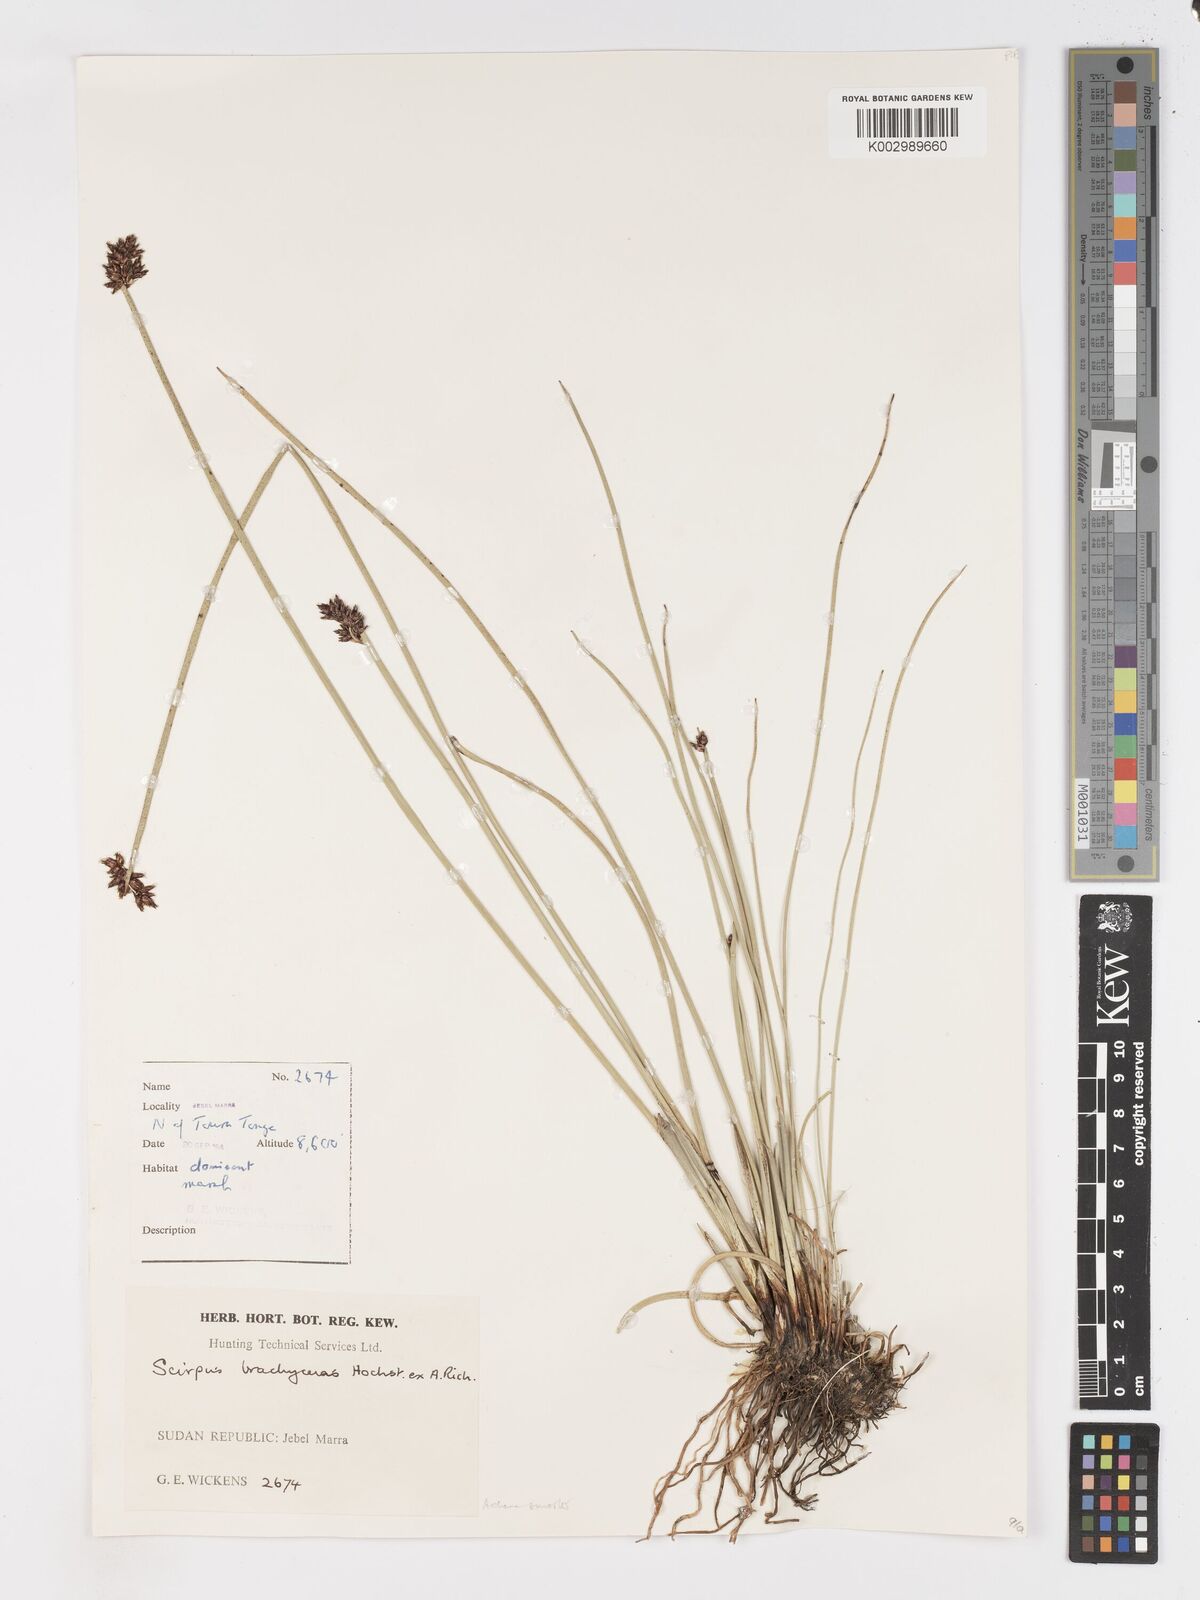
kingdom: Plantae
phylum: Tracheophyta
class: Liliopsida
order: Poales
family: Cyperaceae
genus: Schoenoplectiella
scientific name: Schoenoplectiella brachyceras
